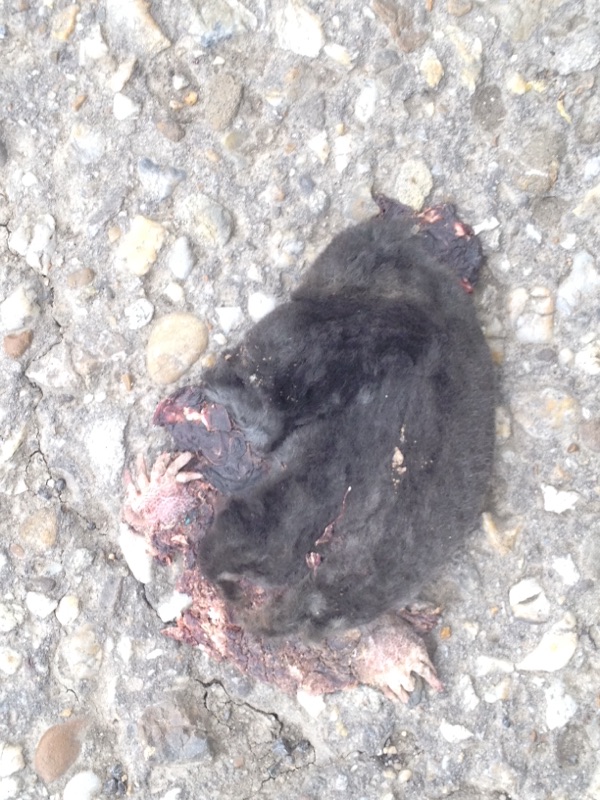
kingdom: Animalia
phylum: Chordata
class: Mammalia
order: Soricomorpha
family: Talpidae
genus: Talpa
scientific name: Talpa europaea
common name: European mole
